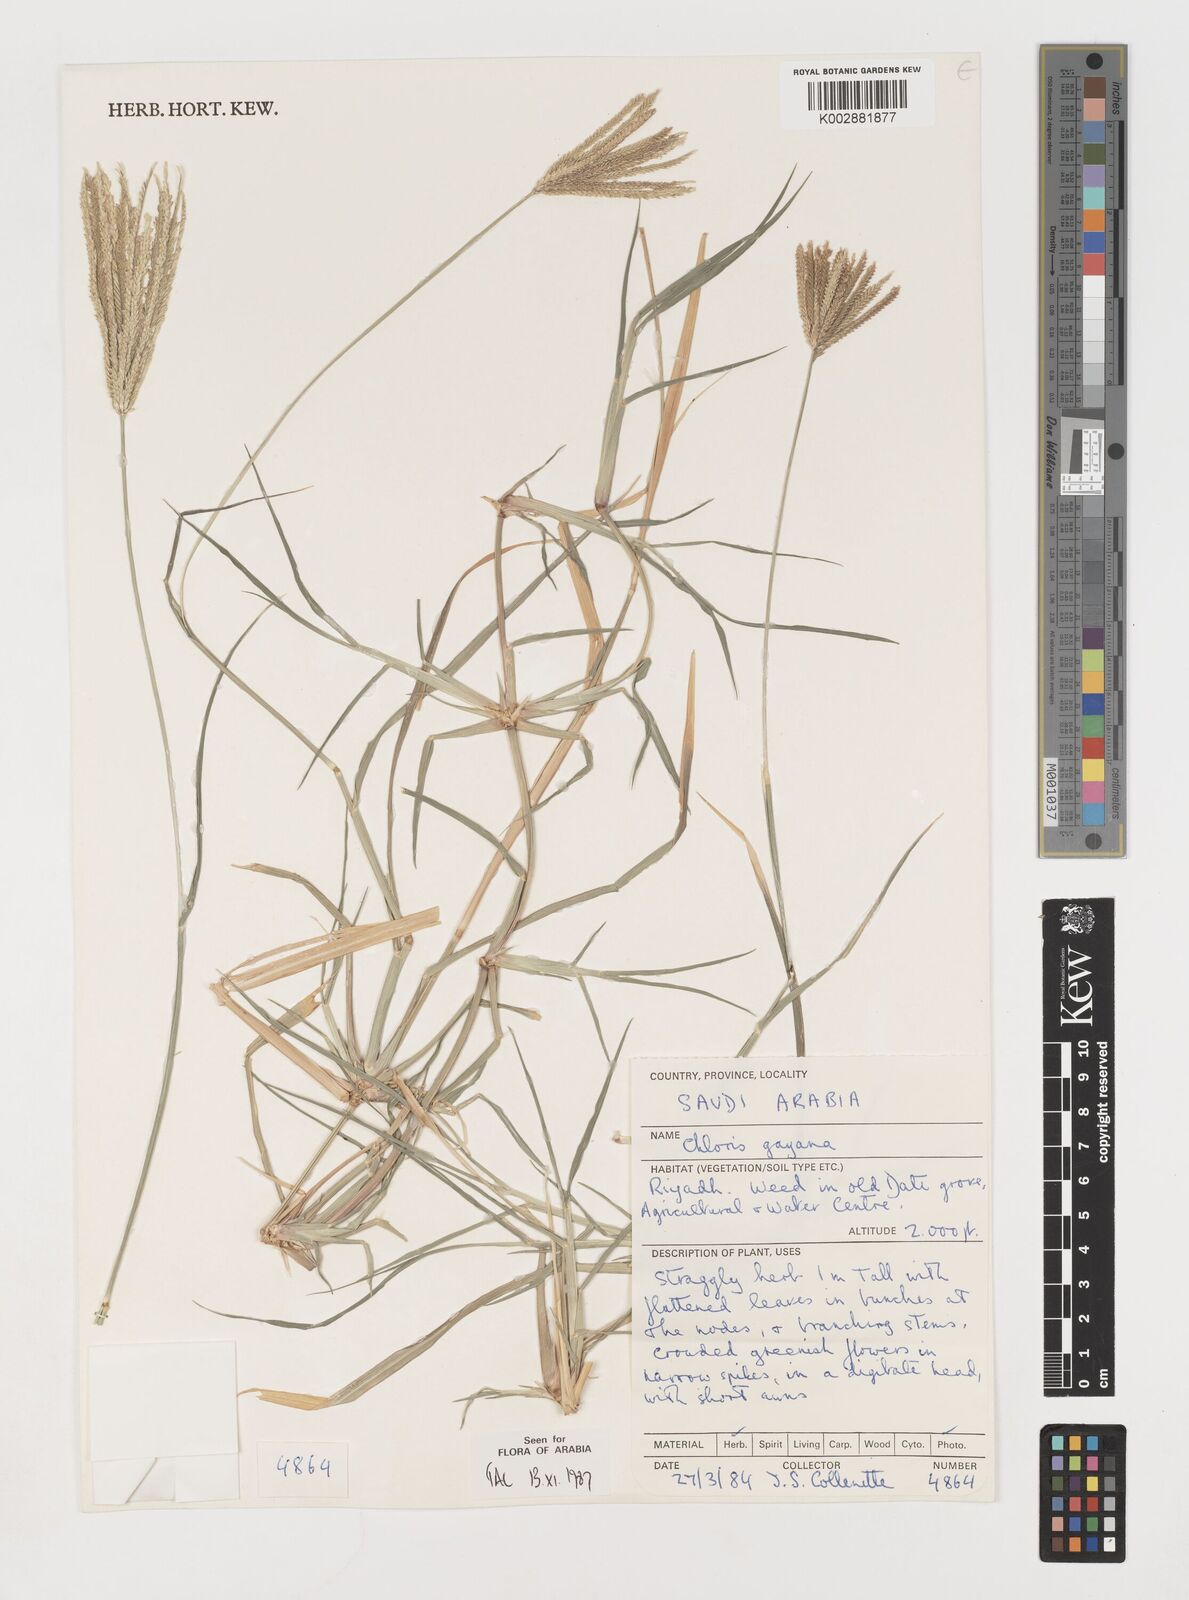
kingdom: Plantae
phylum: Tracheophyta
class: Liliopsida
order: Poales
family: Poaceae
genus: Chloris
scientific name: Chloris gayana
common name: Rhodes grass
